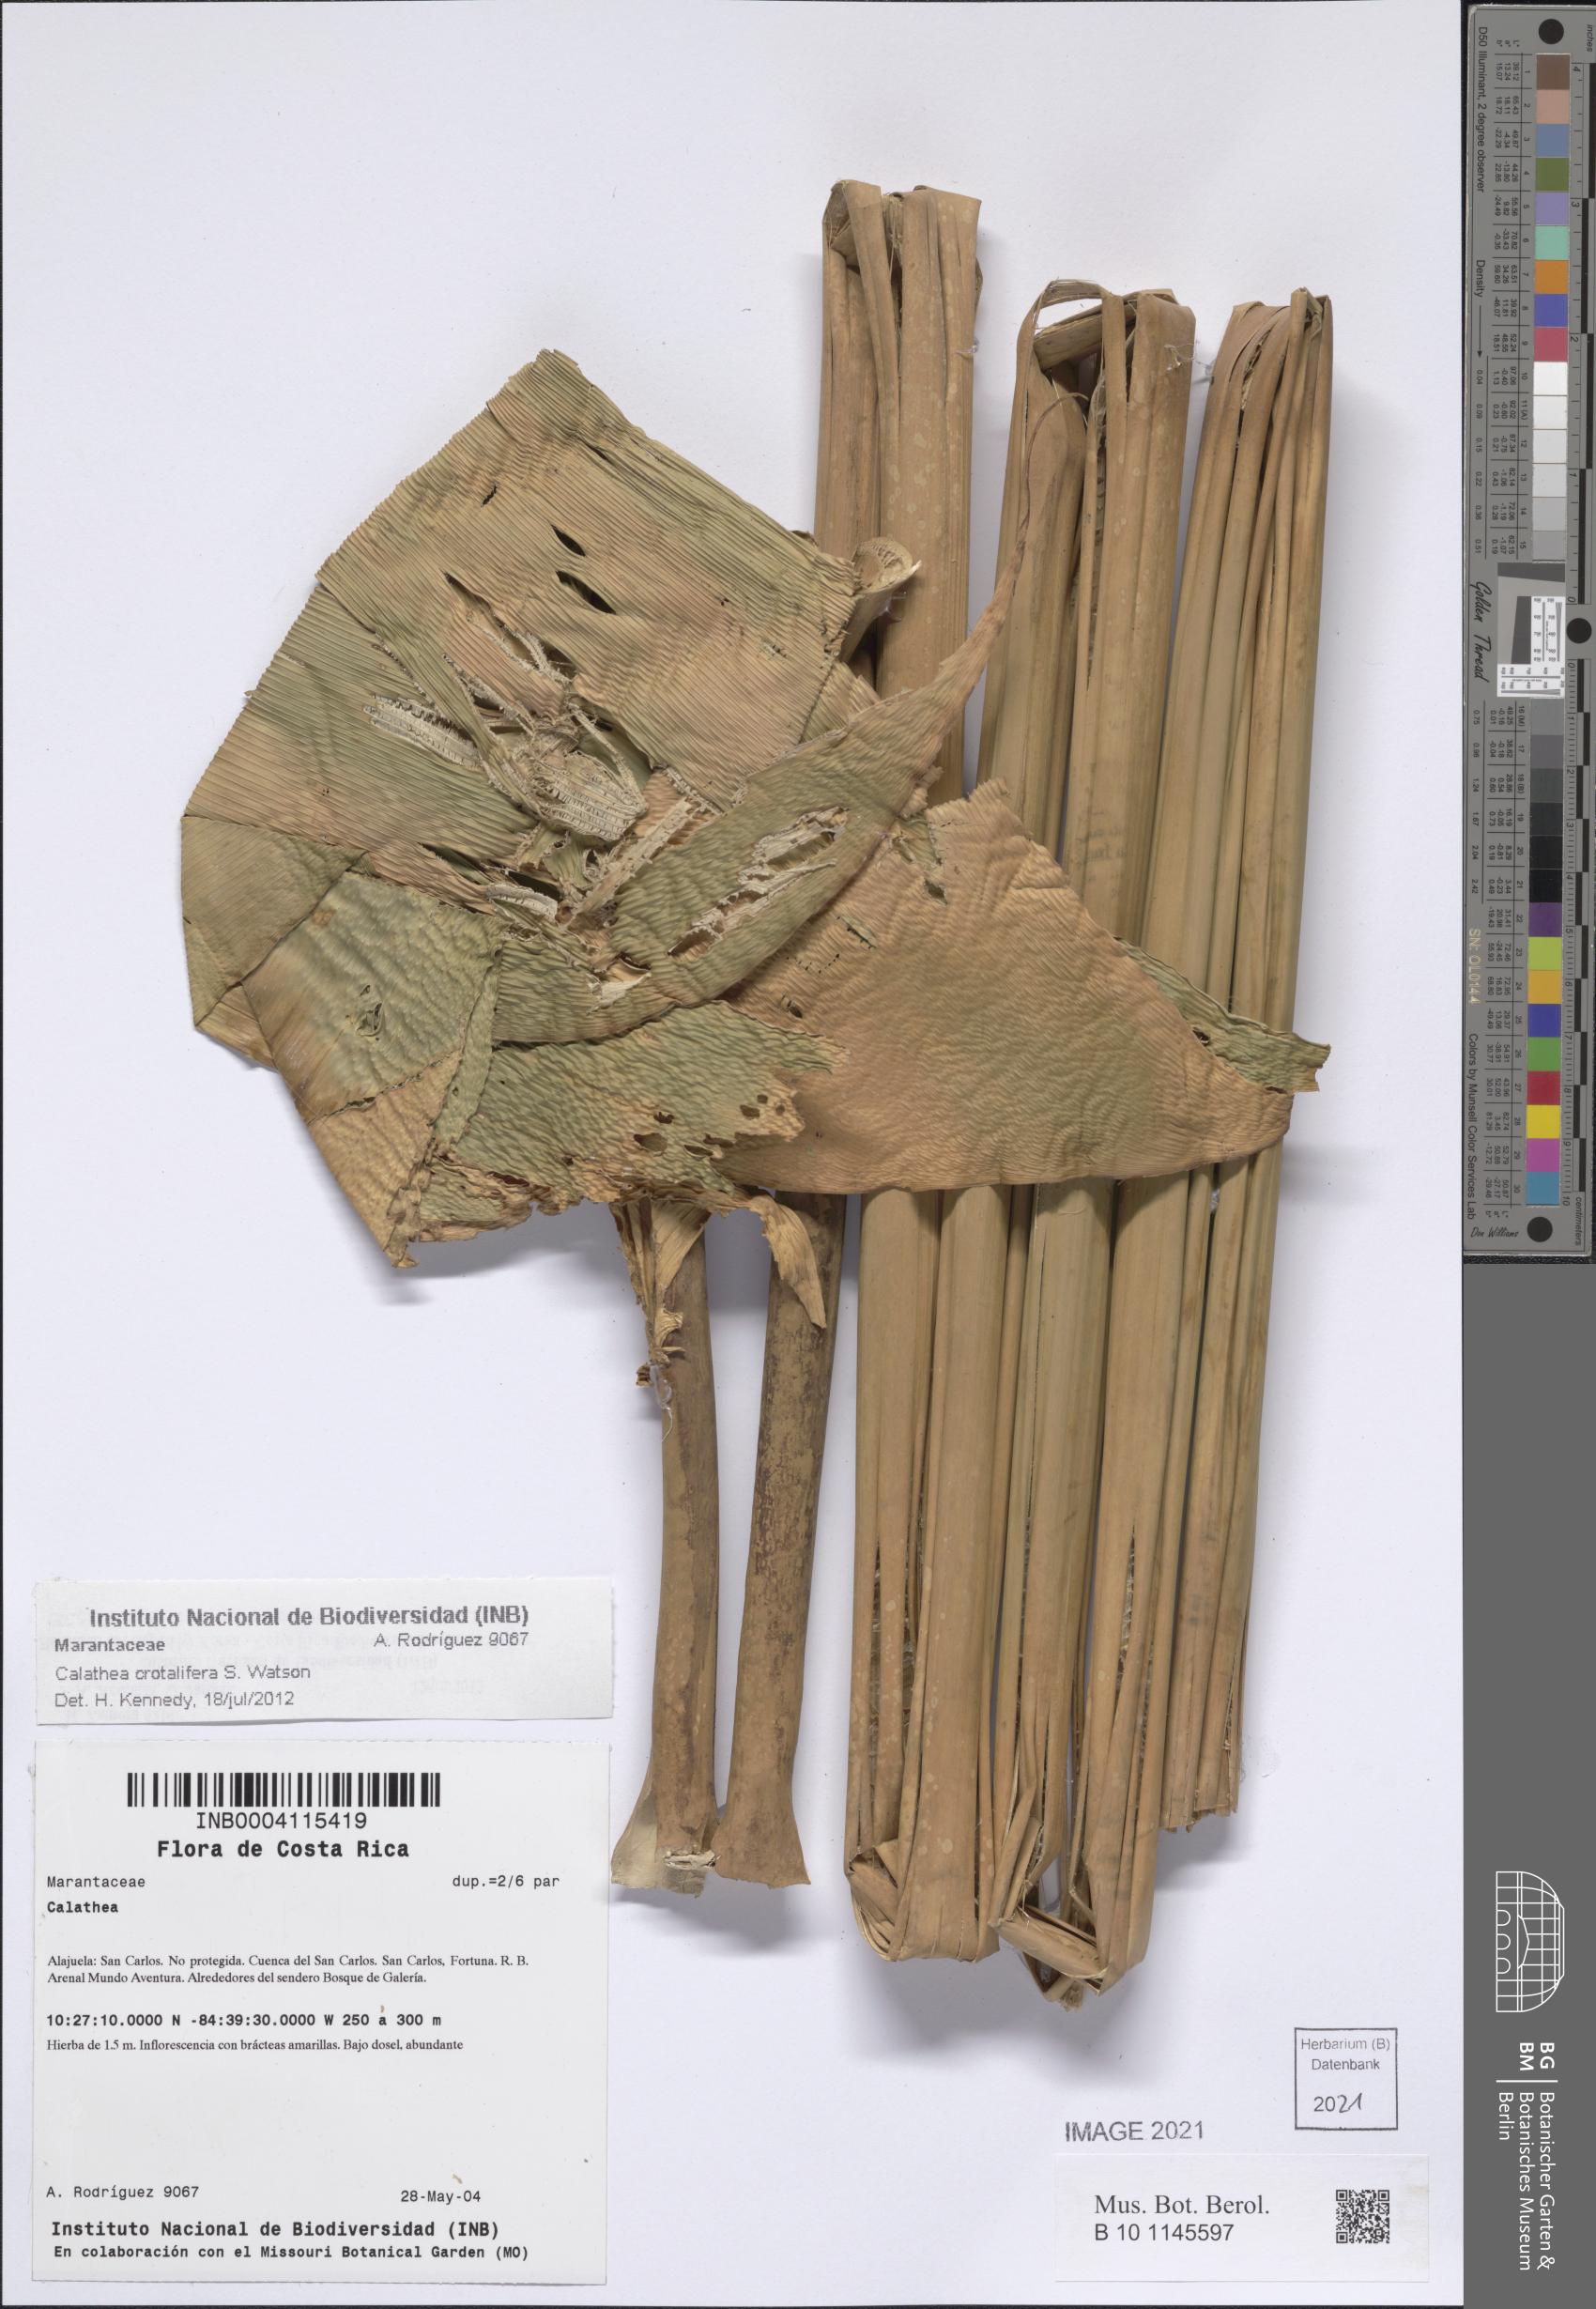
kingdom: Plantae
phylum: Tracheophyta
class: Liliopsida
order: Zingiberales
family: Marantaceae
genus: Calathea
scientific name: Calathea crotalifera
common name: Rattlesnake plant
